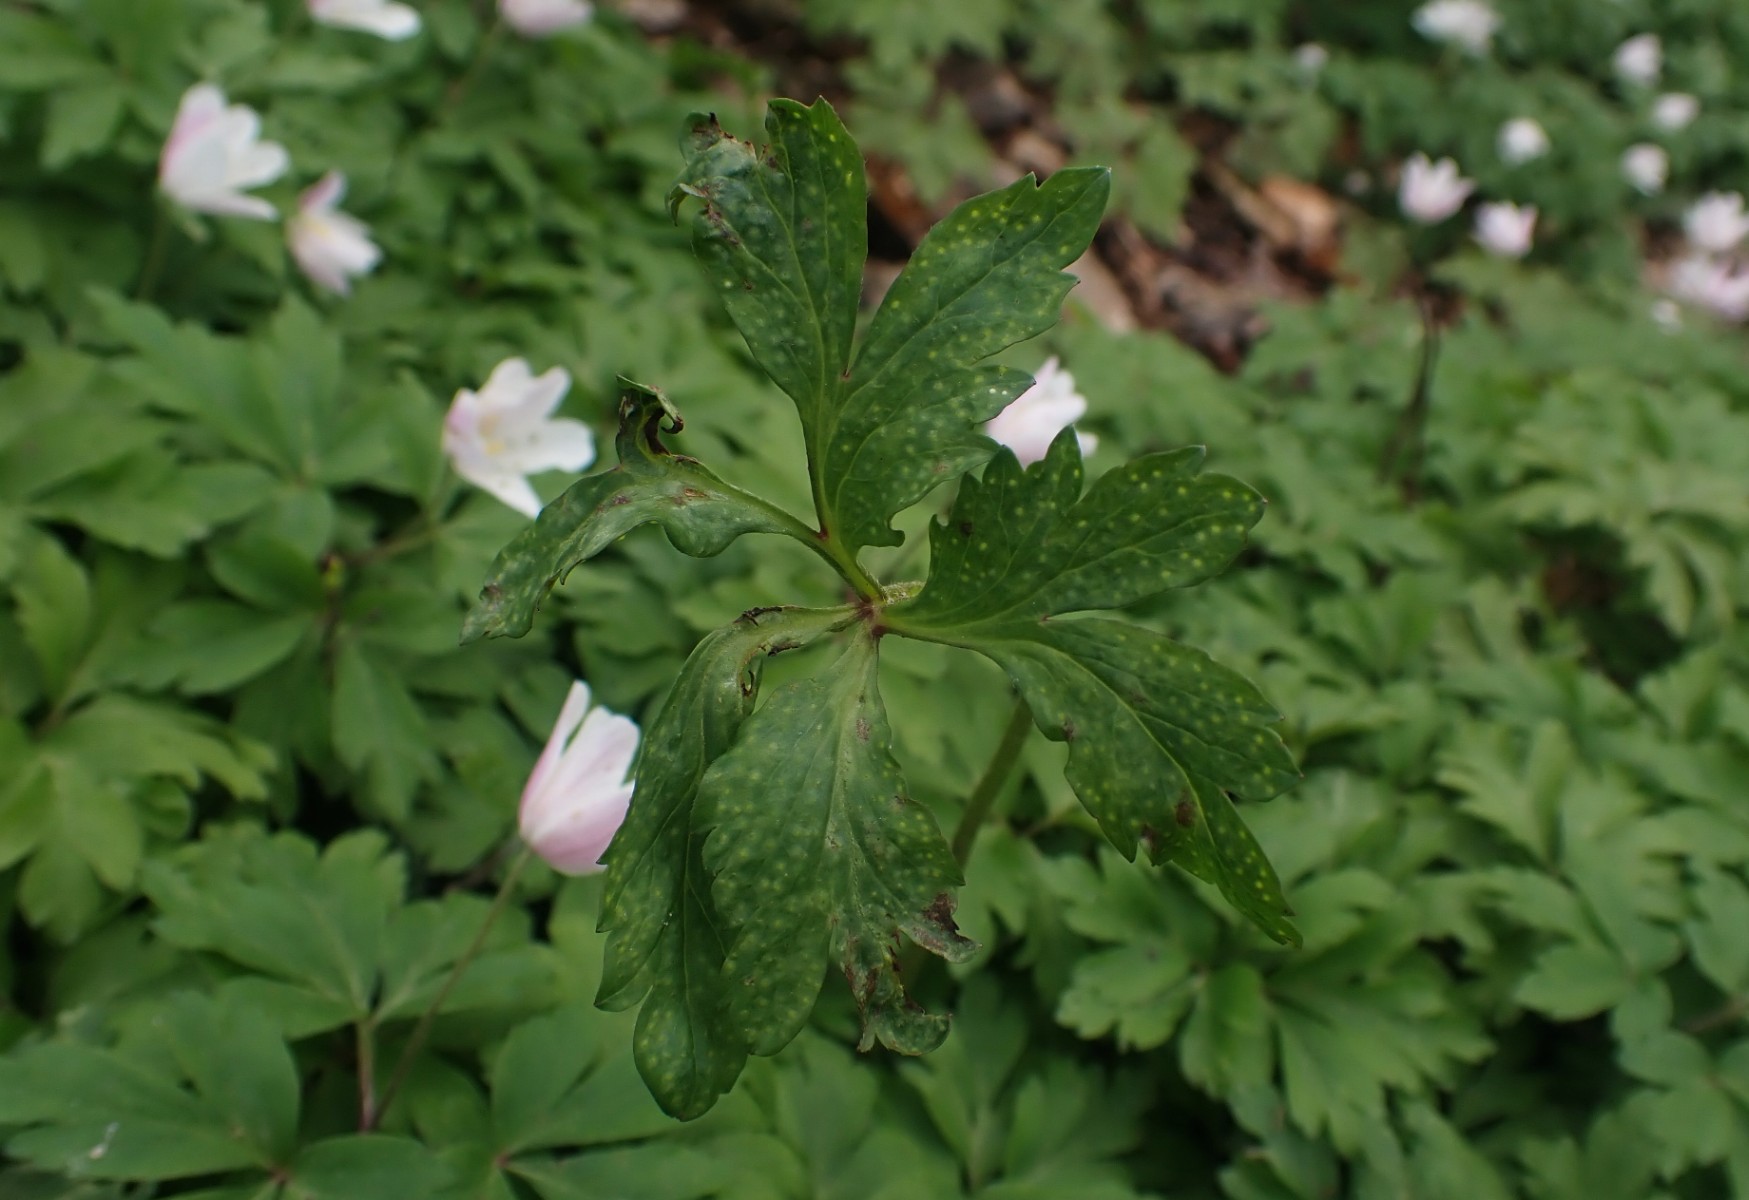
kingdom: Fungi
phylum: Basidiomycota
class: Pucciniomycetes
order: Pucciniales
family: Ochropsoraceae
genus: Ochropsora
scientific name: Ochropsora ariae
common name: anemone-okkerpletrust
